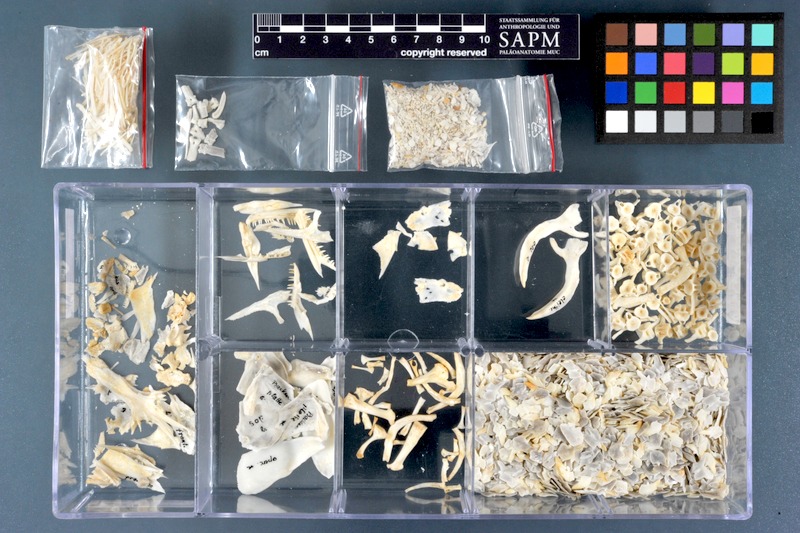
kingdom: Animalia
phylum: Chordata
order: Polypteriformes
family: Polypteridae
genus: Polypterus
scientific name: Polypterus senegalus
